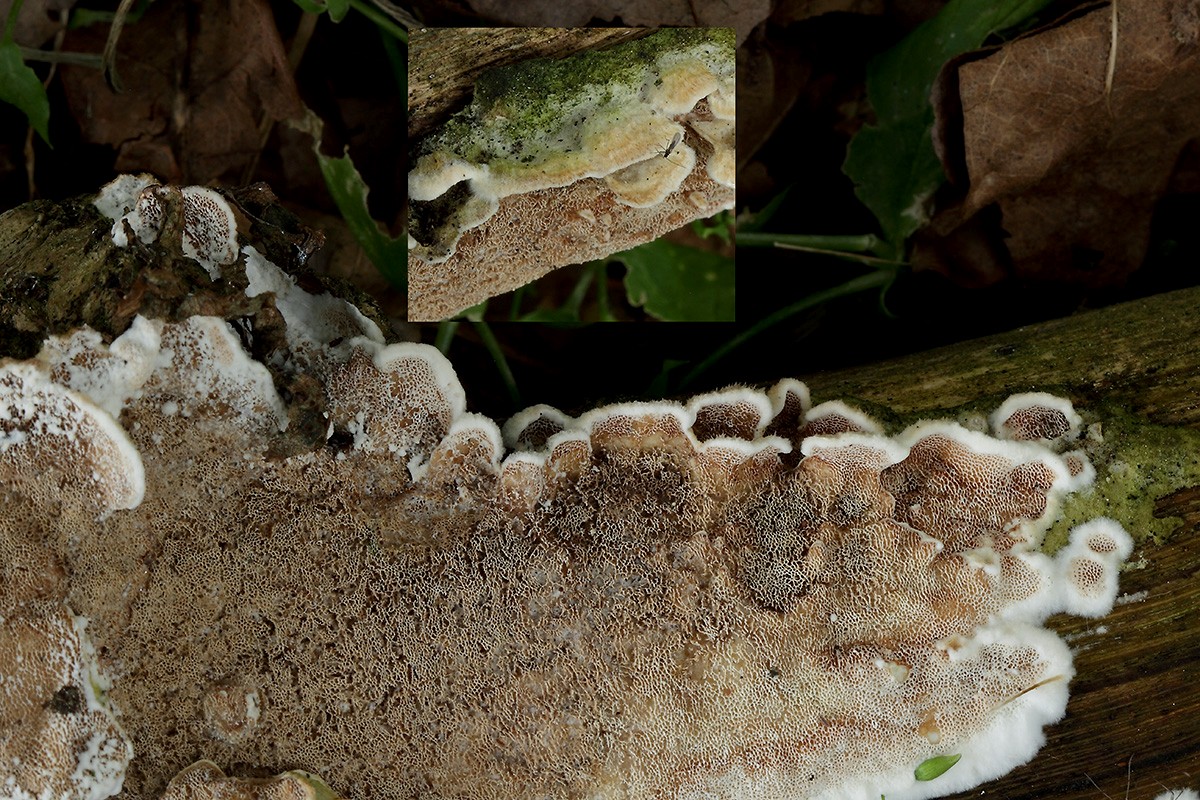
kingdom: Fungi
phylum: Basidiomycota
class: Agaricomycetes
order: Polyporales
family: Irpicaceae
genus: Vitreoporus
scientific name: Vitreoporus dichrous
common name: tofarvet foldporesvamp
